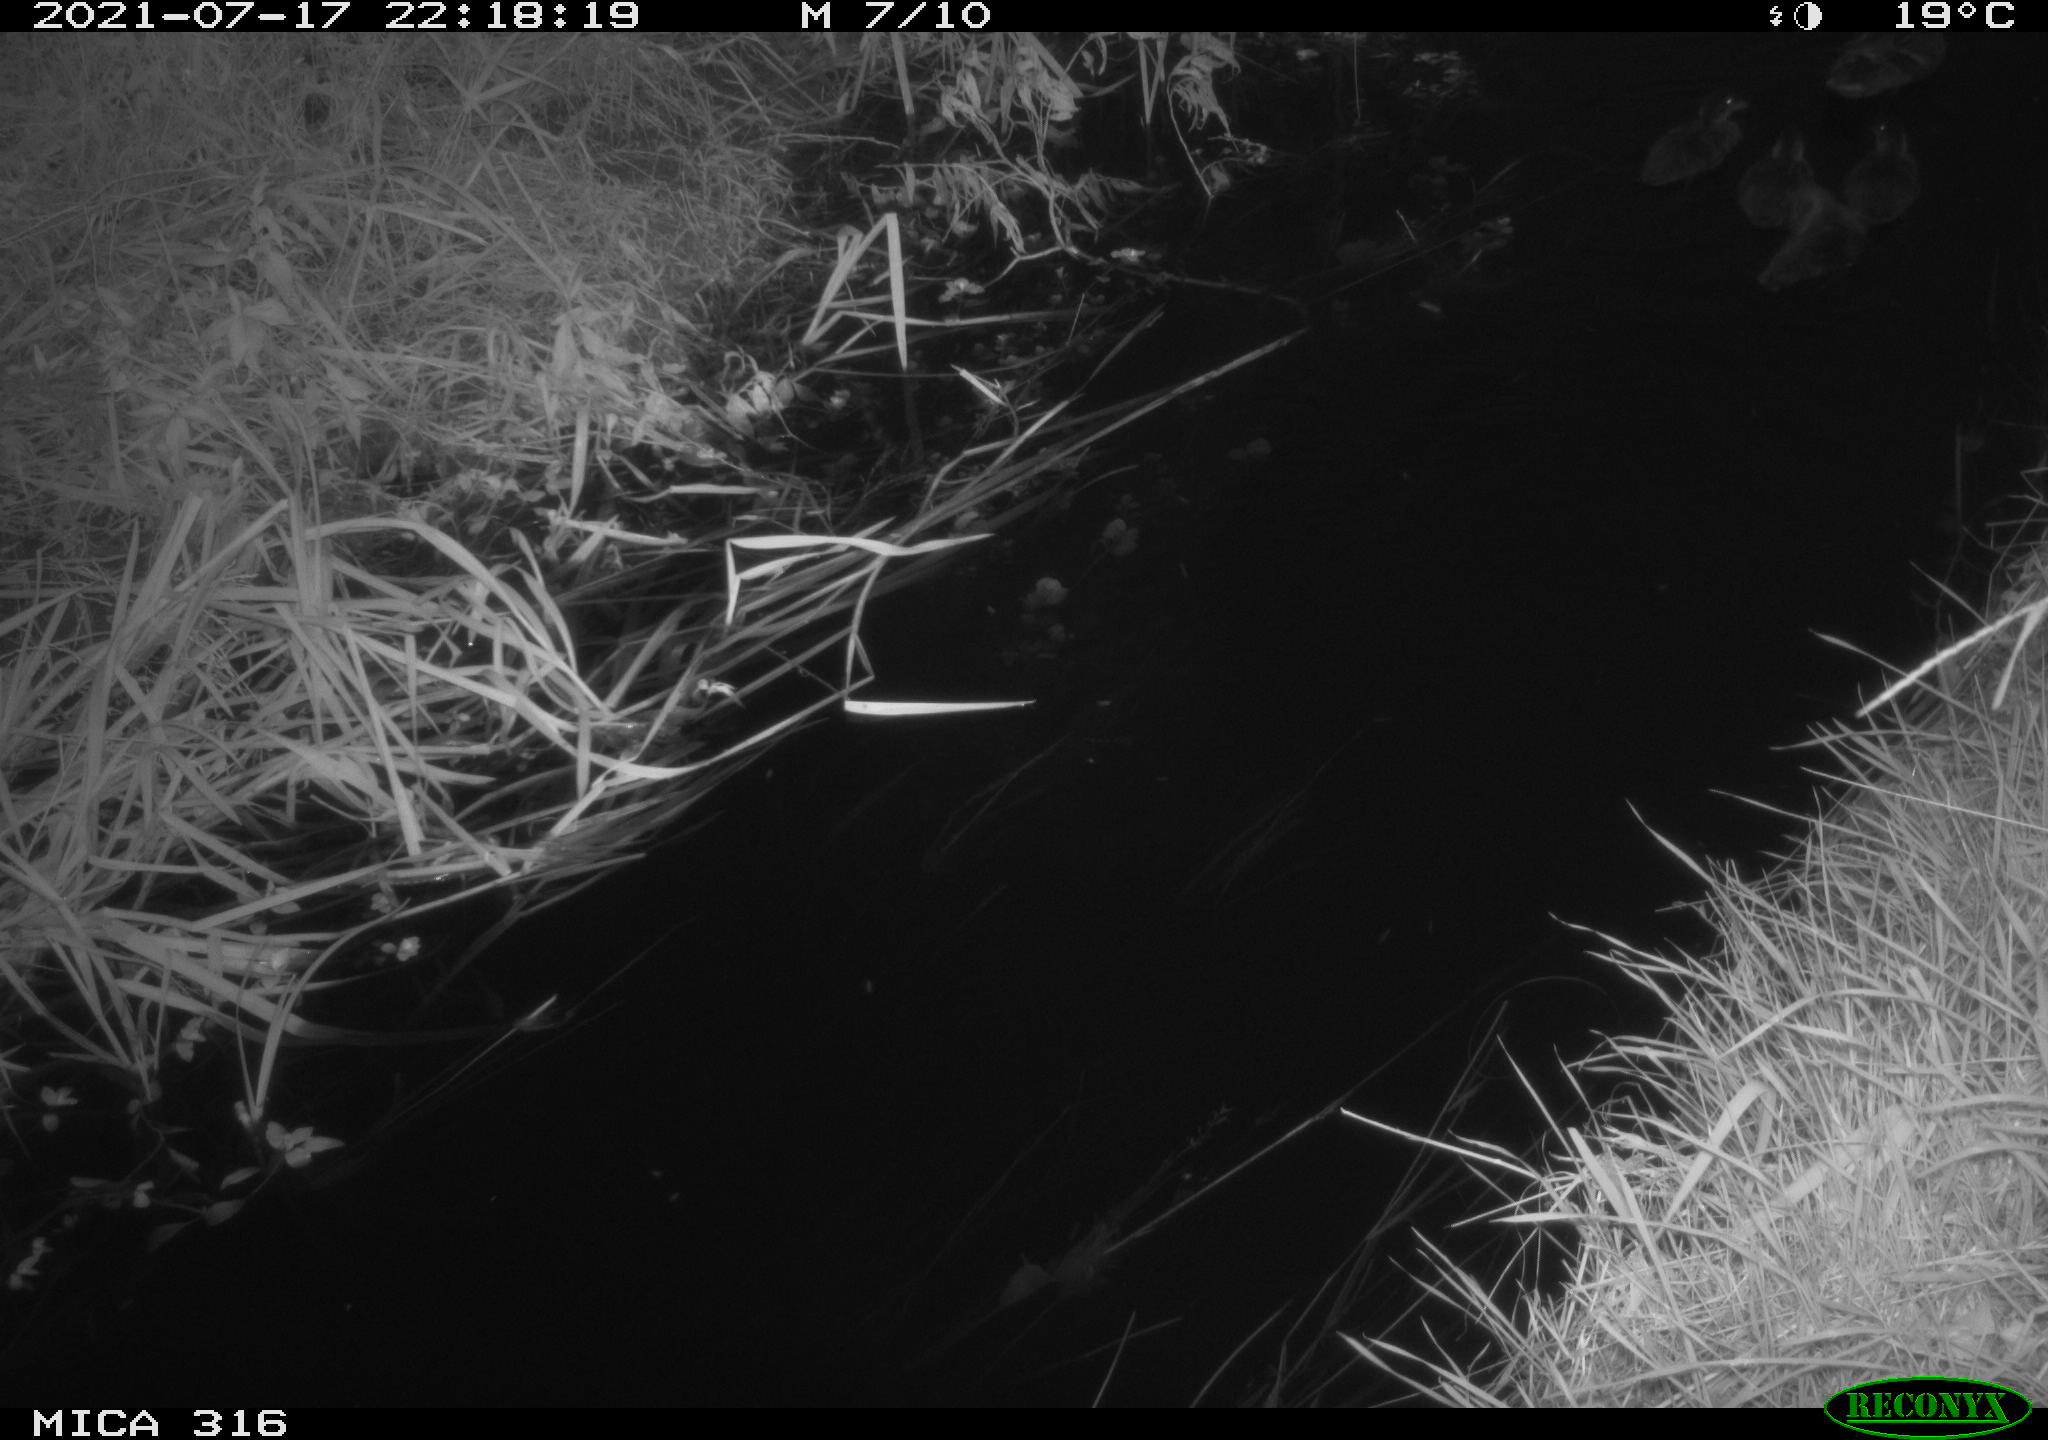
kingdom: Animalia
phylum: Chordata
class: Aves
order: Anseriformes
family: Anatidae
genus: Anas
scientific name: Anas platyrhynchos
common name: Mallard
